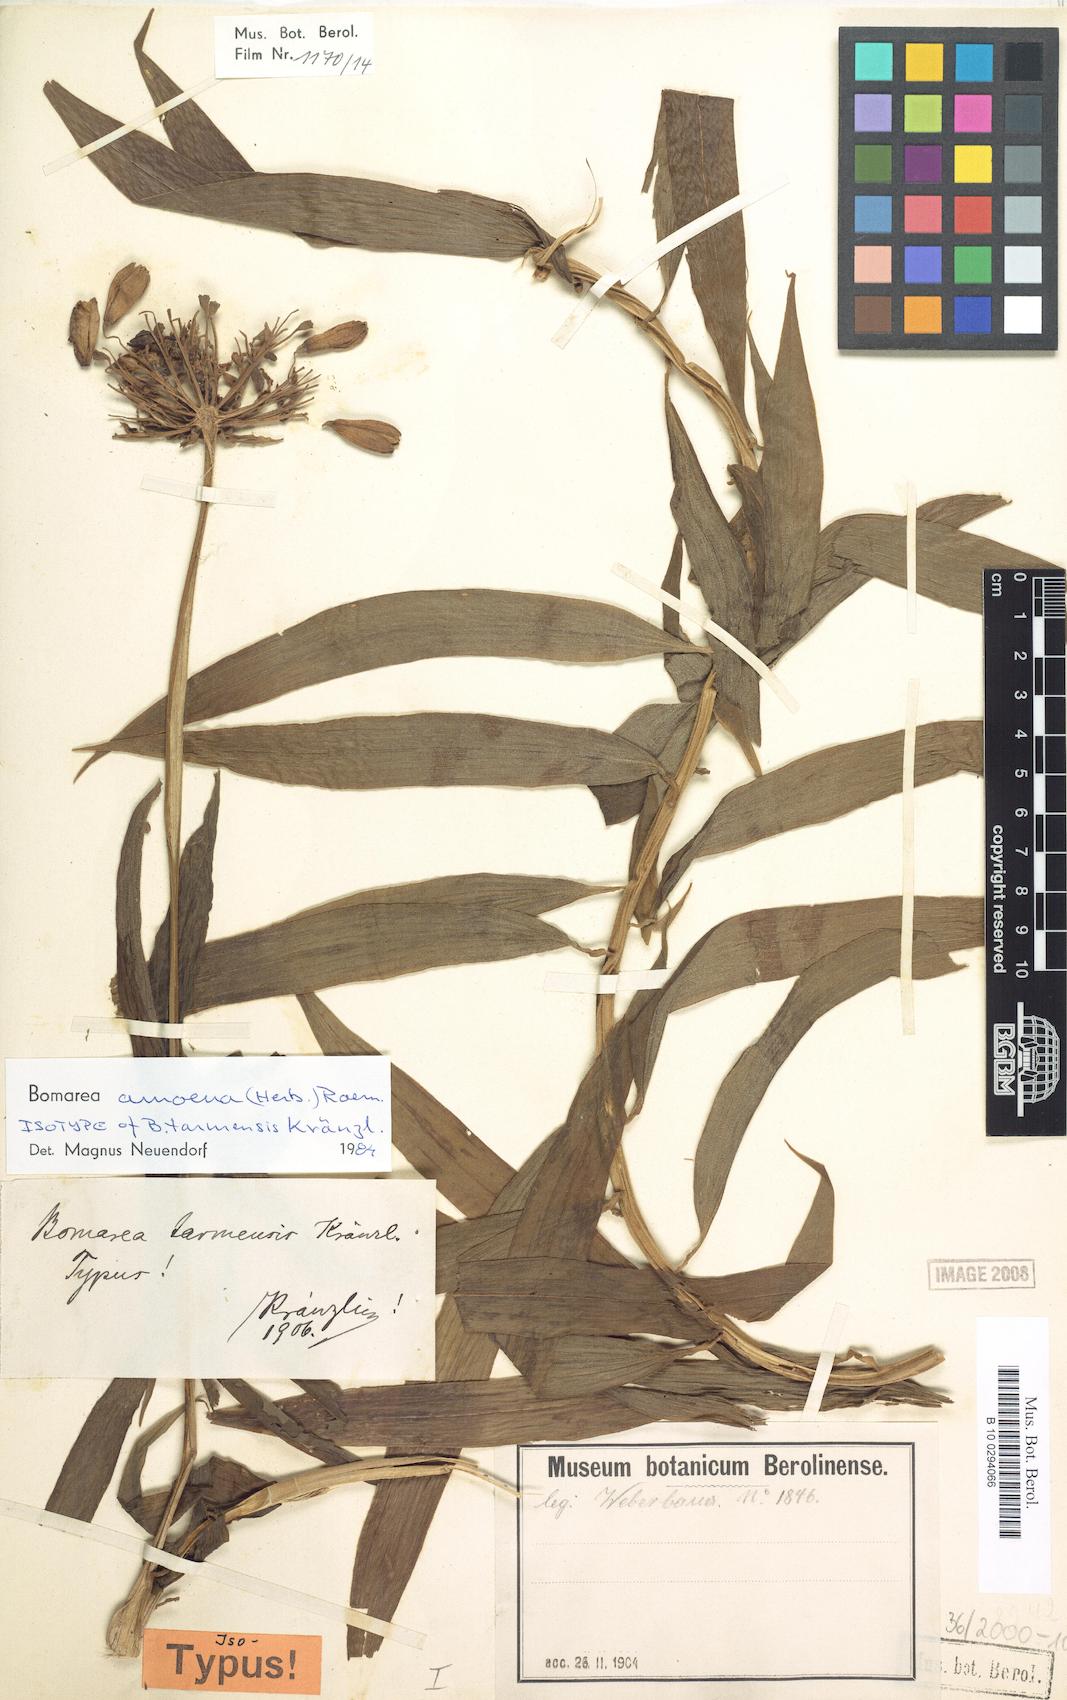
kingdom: Plantae
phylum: Tracheophyta
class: Liliopsida
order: Liliales
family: Alstroemeriaceae
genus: Bomarea
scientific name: Bomarea ovata
